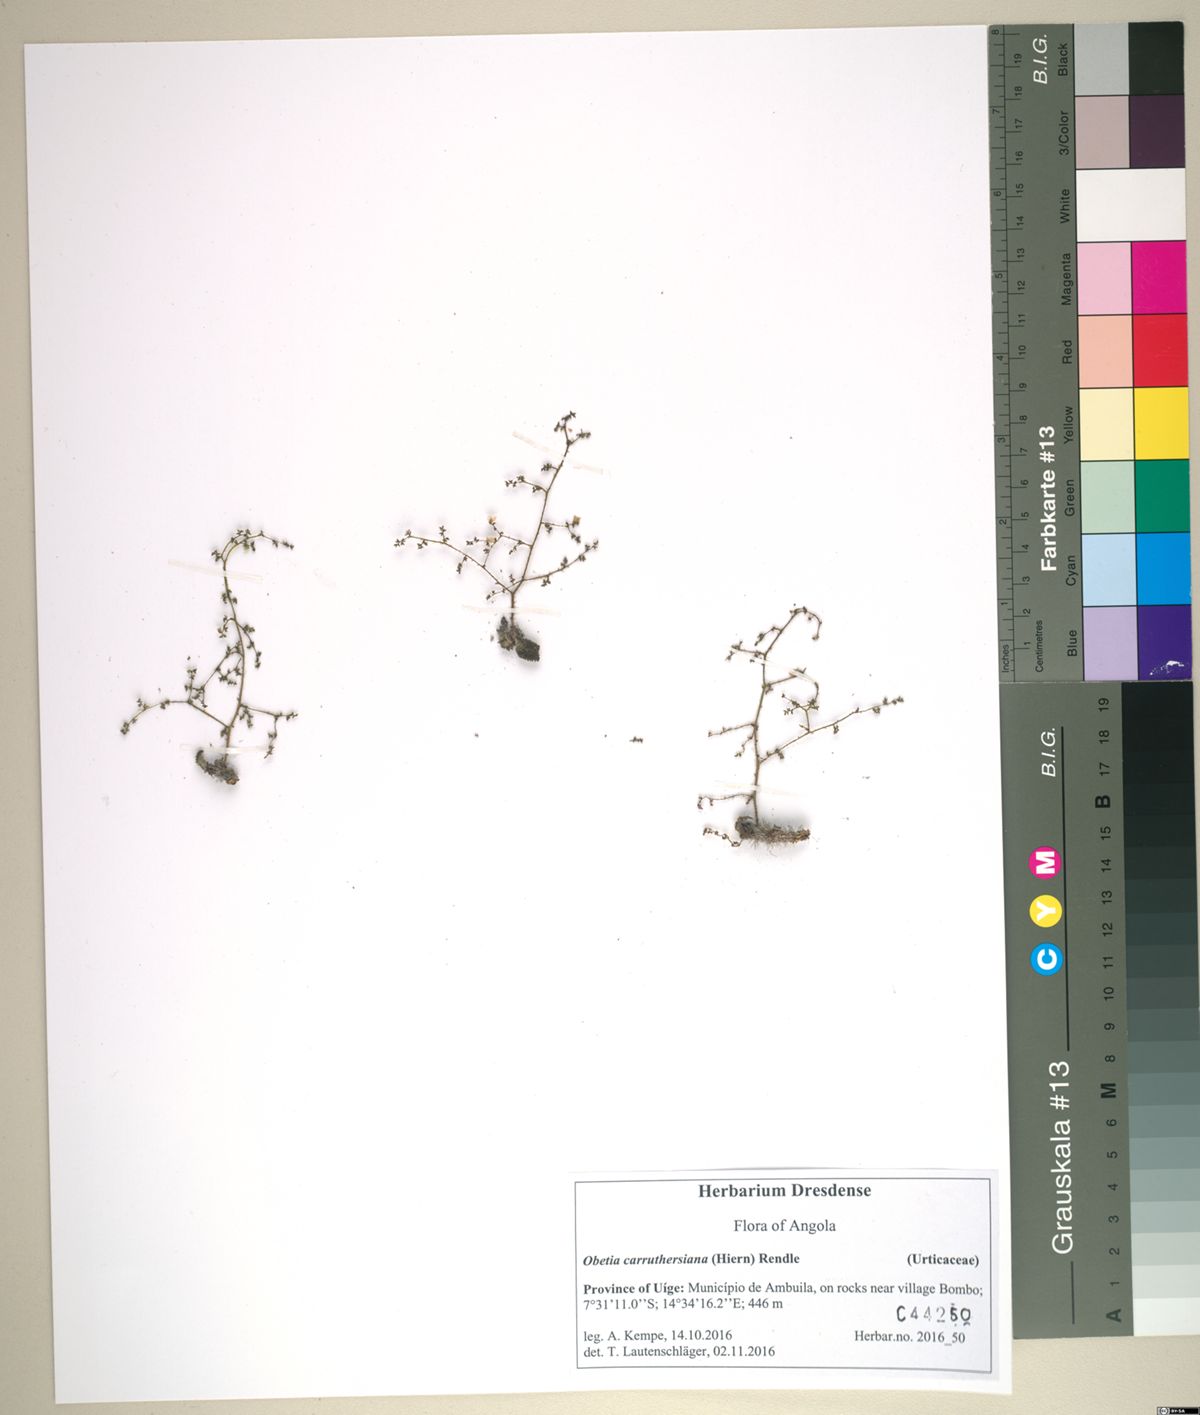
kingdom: Plantae
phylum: Tracheophyta
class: Magnoliopsida
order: Rosales
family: Urticaceae
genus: Obetia
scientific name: Obetia carruthersiana
